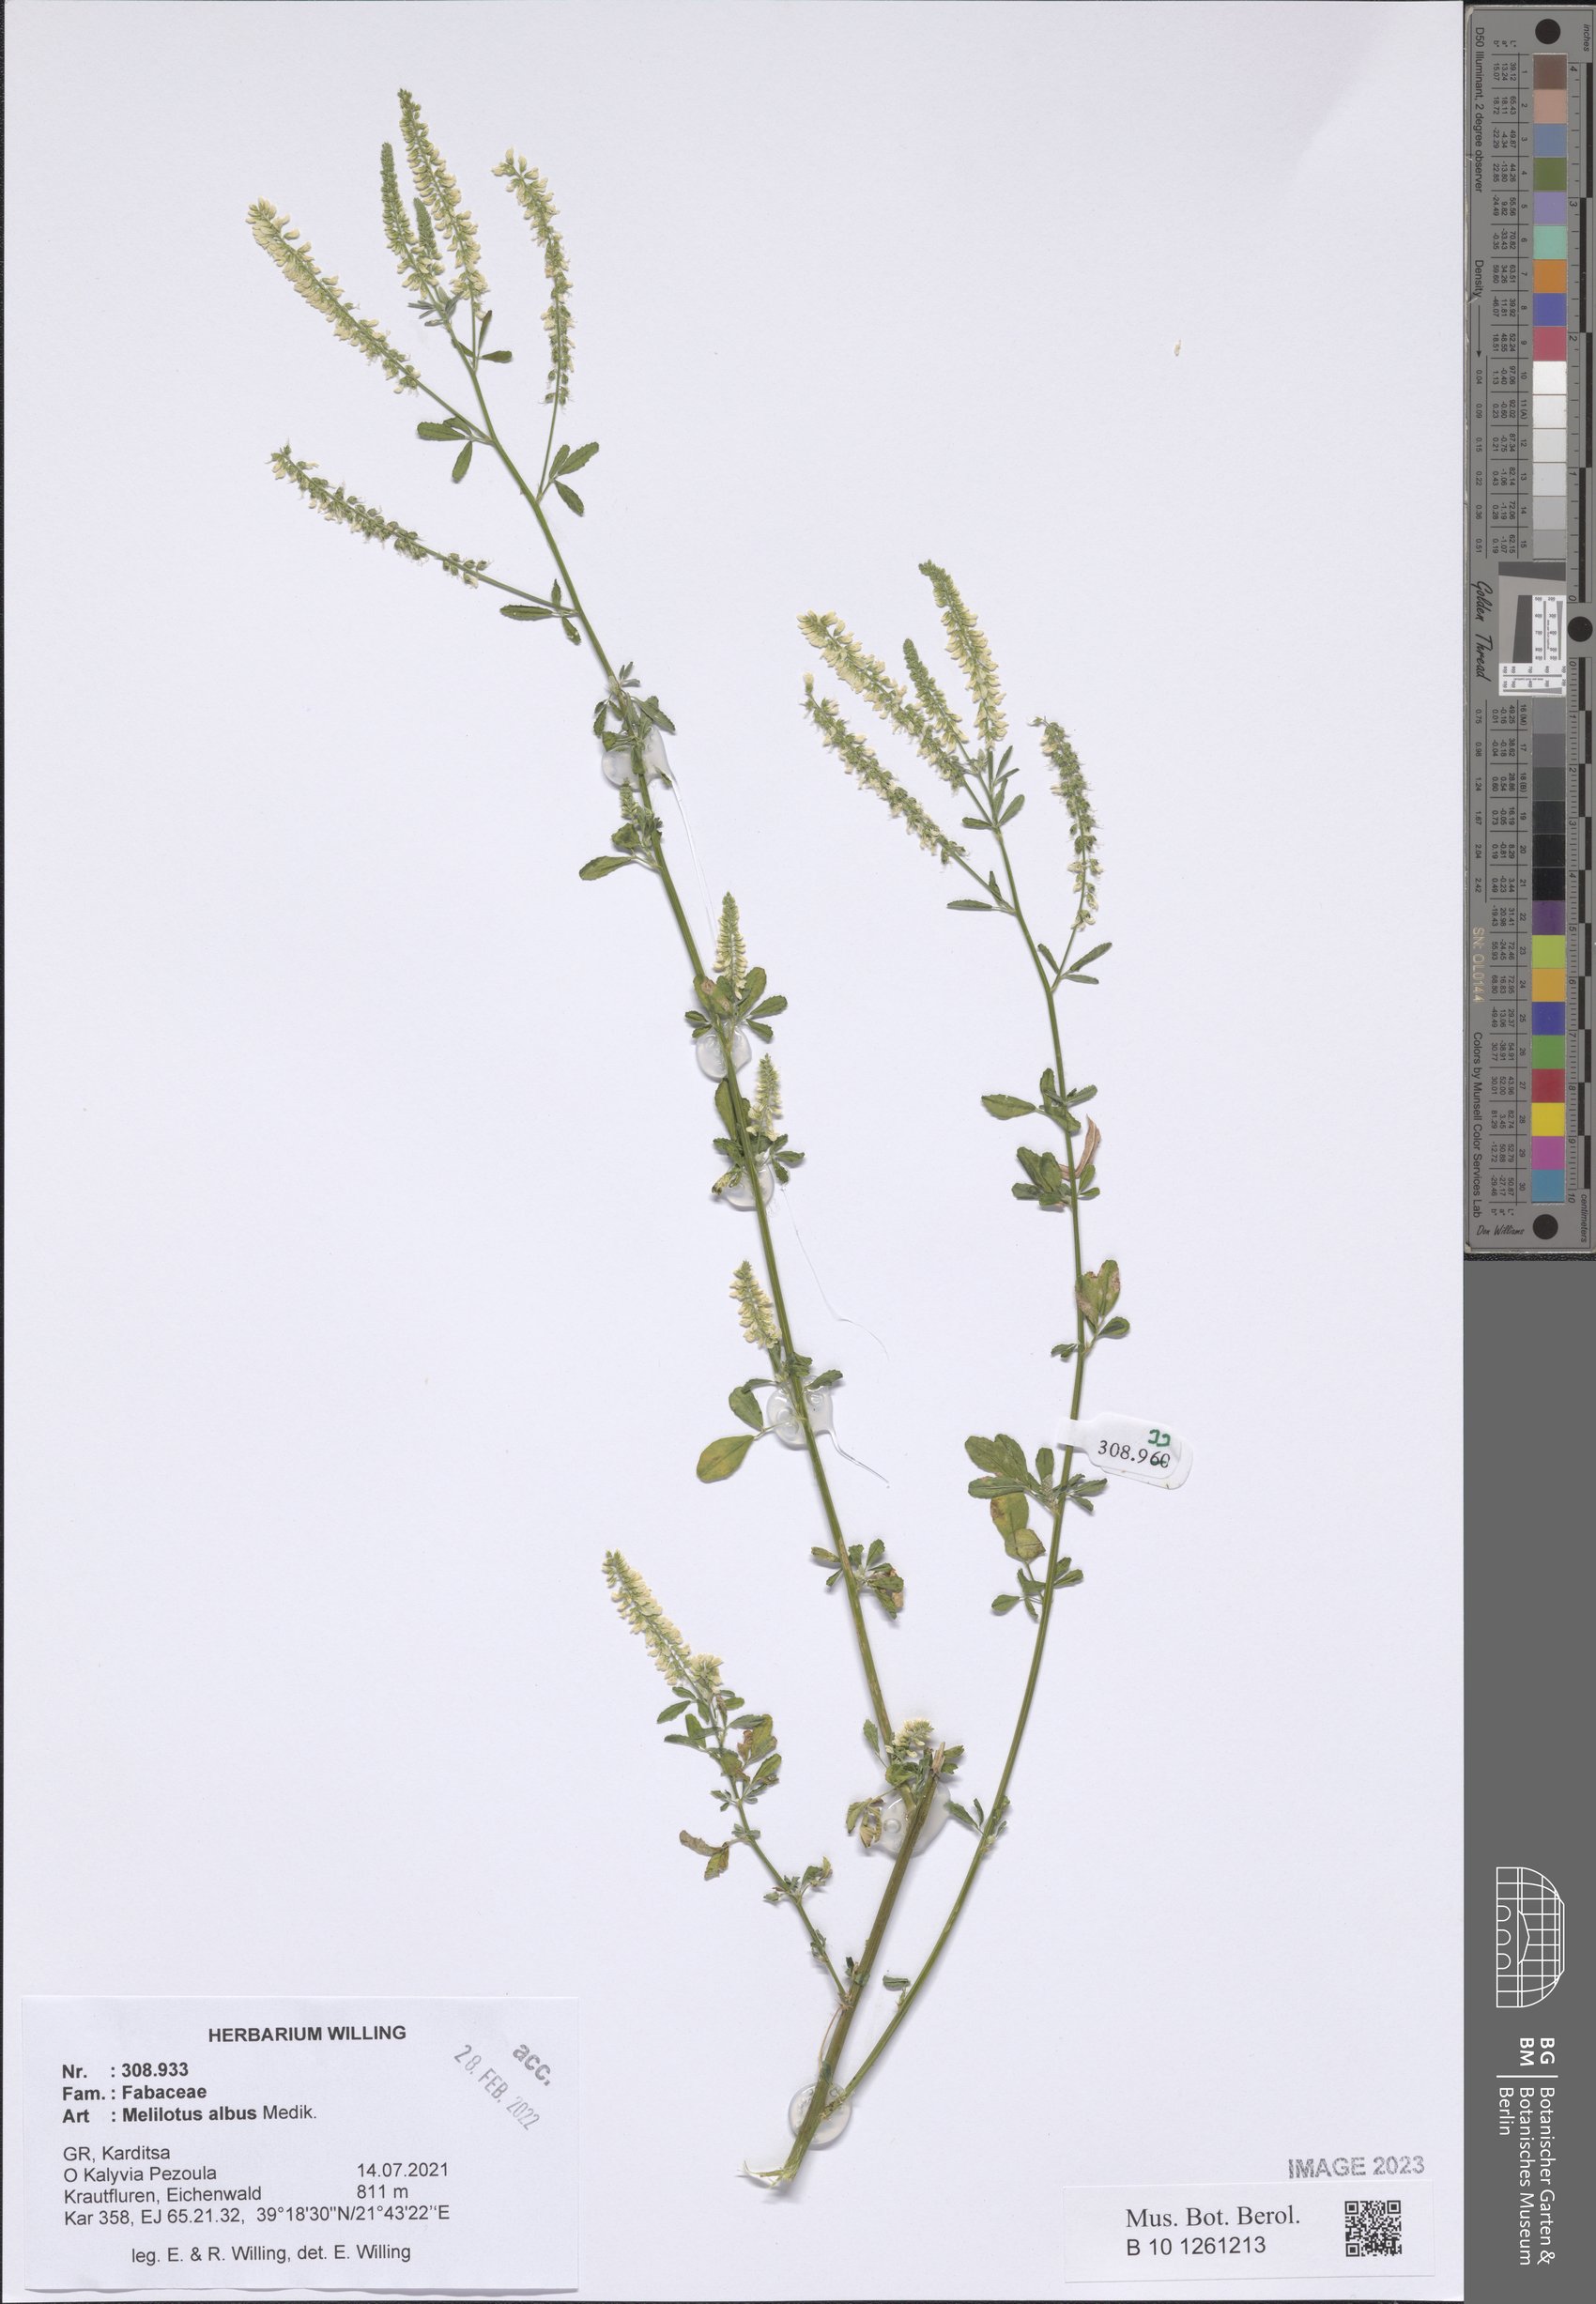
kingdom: Plantae
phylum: Tracheophyta
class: Magnoliopsida
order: Fabales
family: Fabaceae
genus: Melilotus
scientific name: Melilotus albus
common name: White melilot
